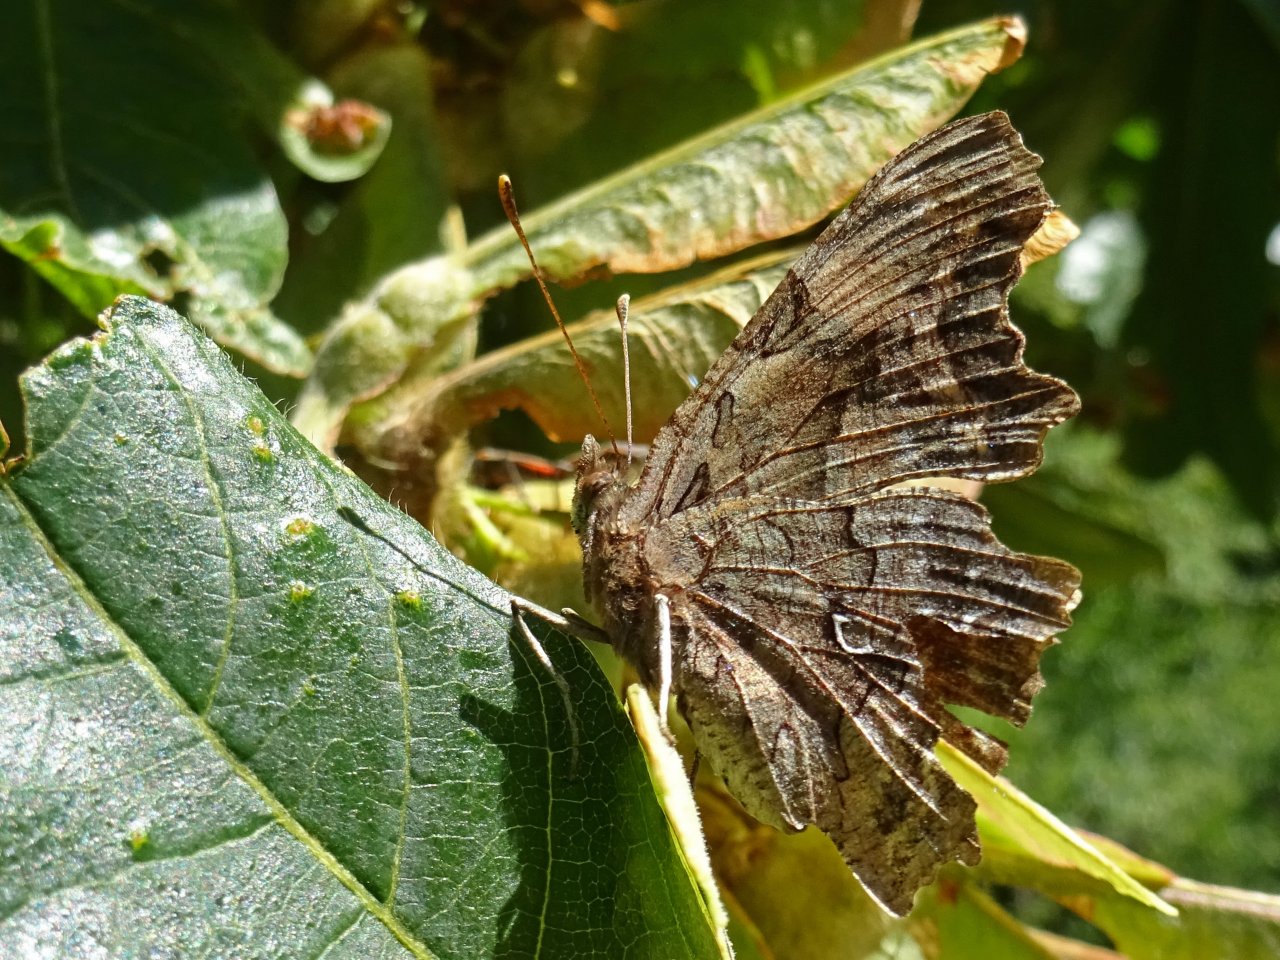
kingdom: Animalia
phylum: Arthropoda
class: Insecta
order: Lepidoptera
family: Nymphalidae
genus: Polygonia
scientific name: Polygonia faunus
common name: Green Comma
